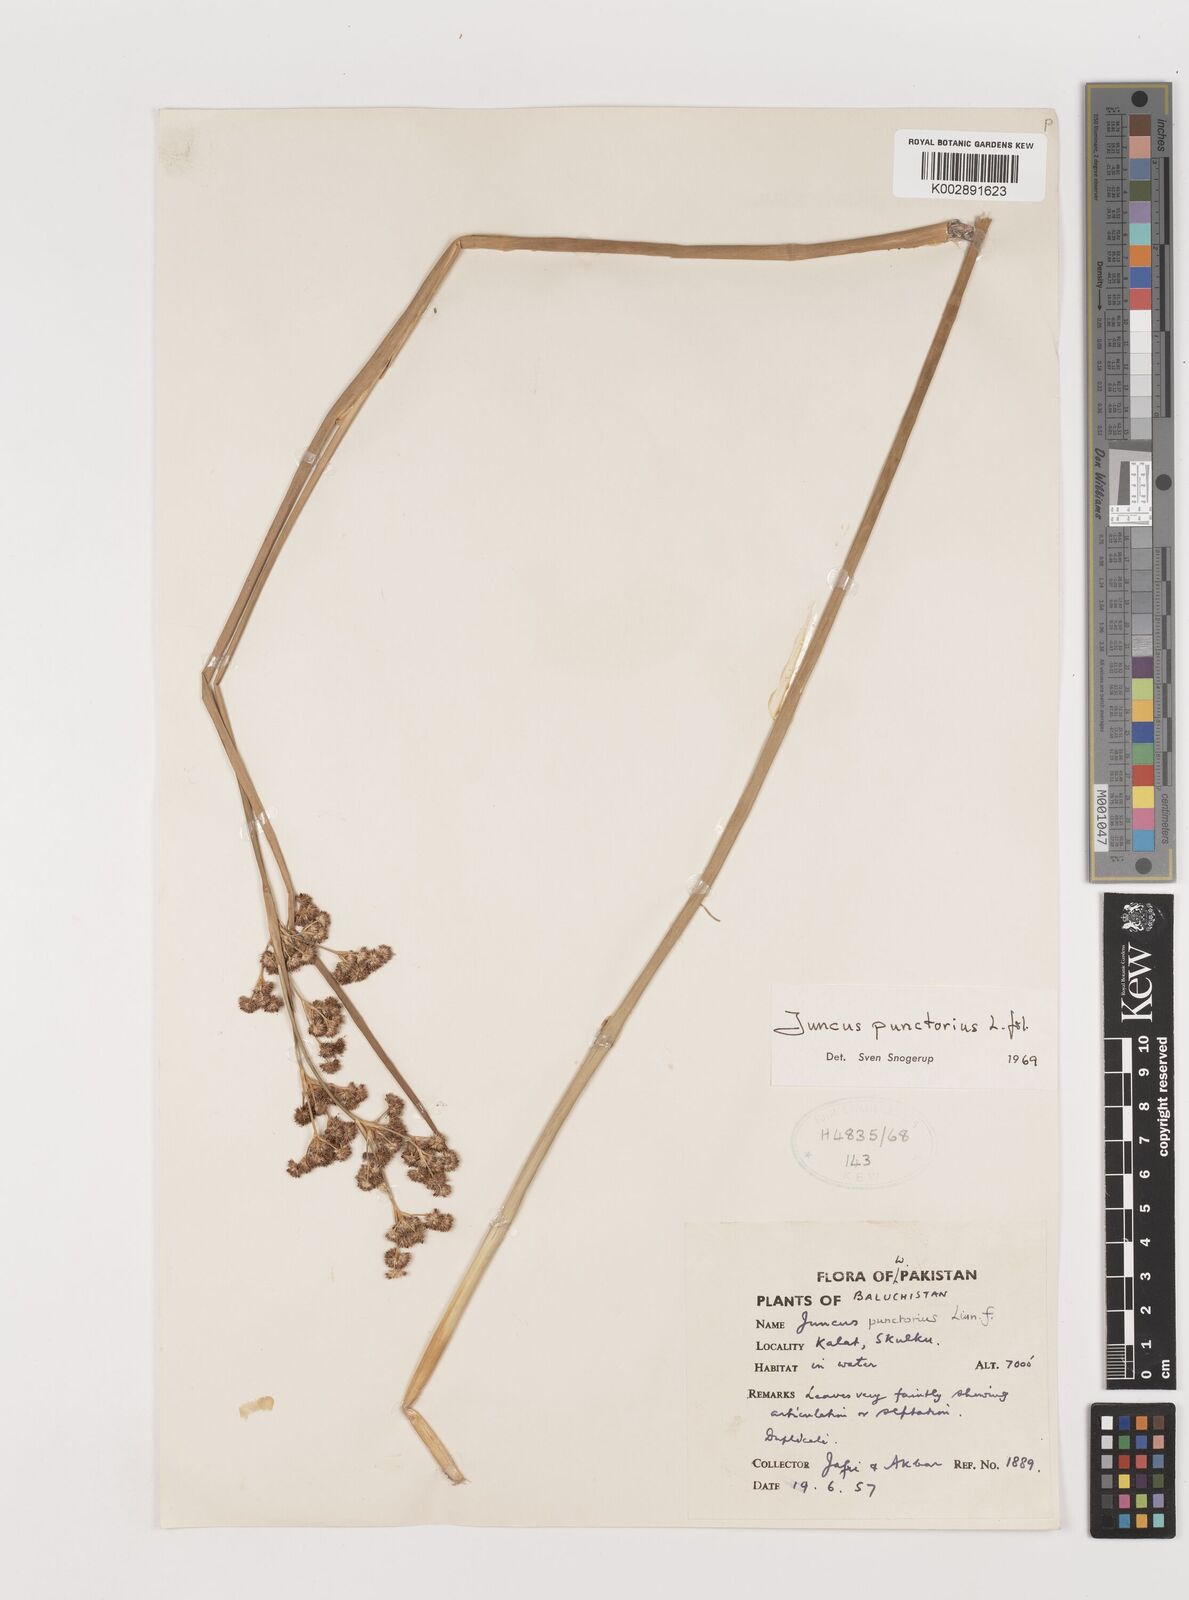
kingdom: Plantae
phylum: Tracheophyta
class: Liliopsida
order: Poales
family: Juncaceae
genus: Juncus
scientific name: Juncus punctorius
